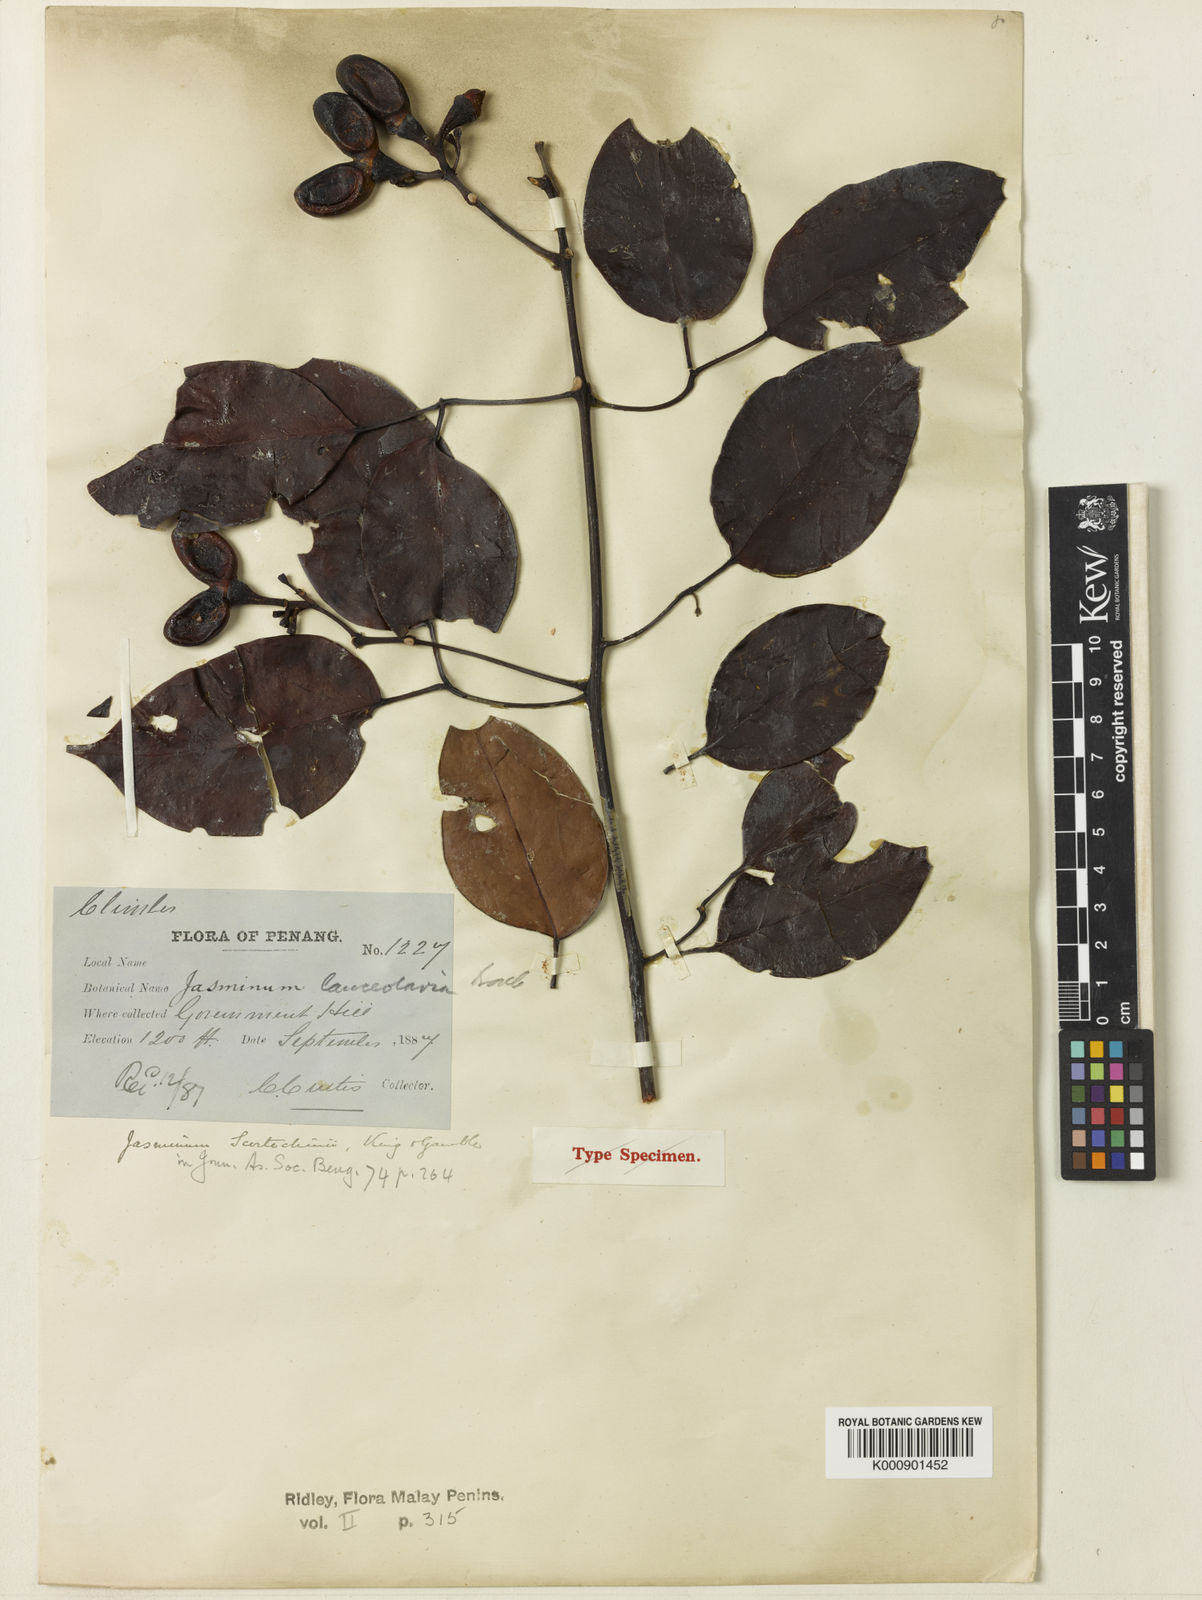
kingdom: Plantae
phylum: Tracheophyta
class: Magnoliopsida
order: Lamiales
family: Oleaceae
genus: Jasminum
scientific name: Jasminum lanceolaria
